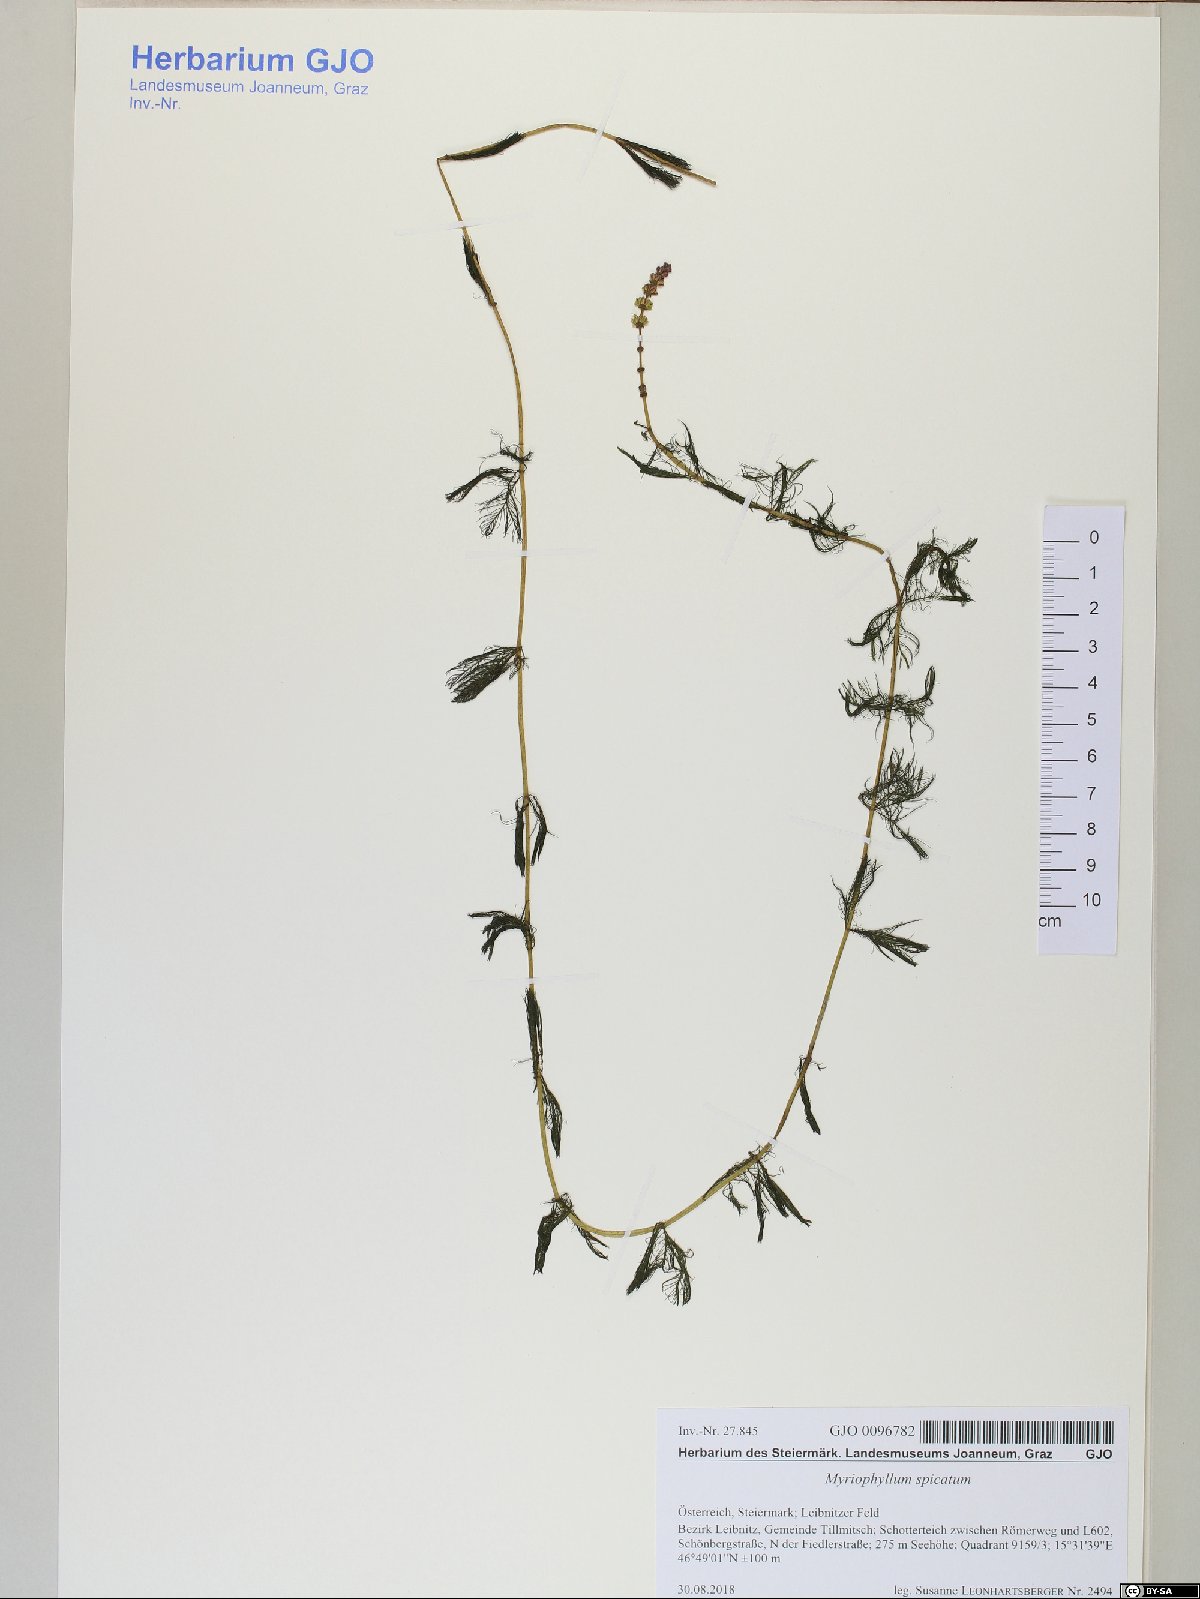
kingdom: Plantae
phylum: Tracheophyta
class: Magnoliopsida
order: Saxifragales
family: Haloragaceae
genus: Myriophyllum
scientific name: Myriophyllum spicatum
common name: Spiked water-milfoil
